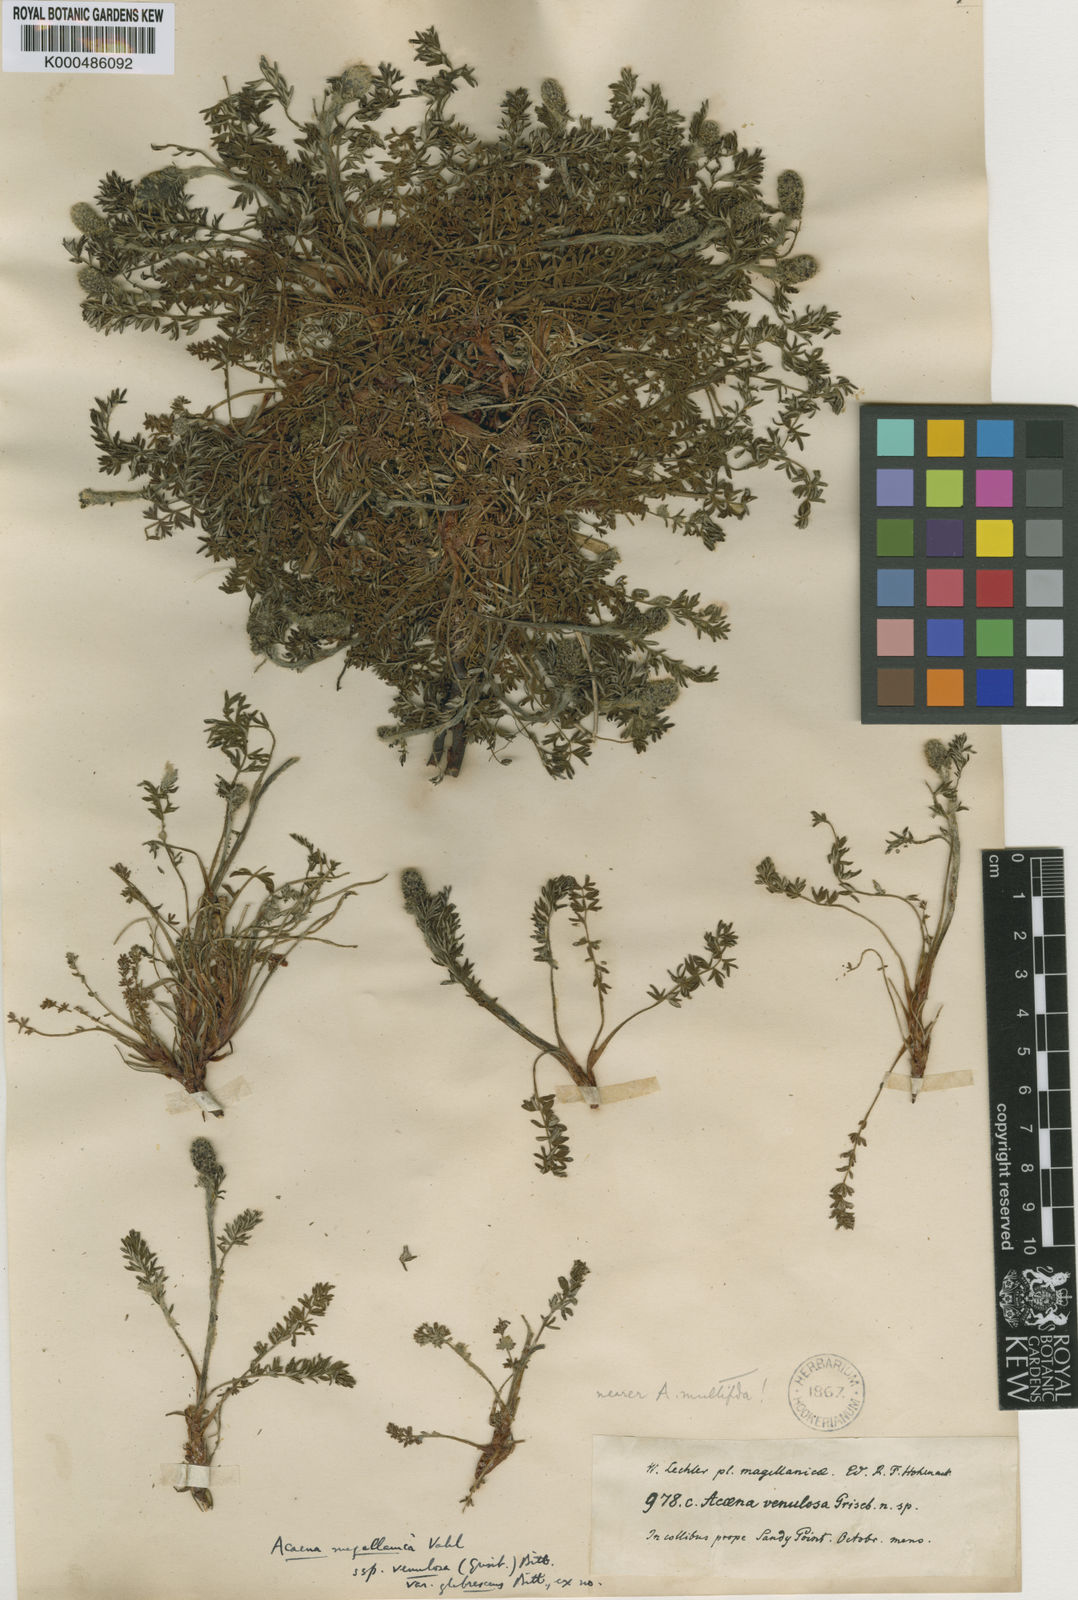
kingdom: Plantae
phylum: Tracheophyta
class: Magnoliopsida
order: Rosales
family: Rosaceae
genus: Acaena
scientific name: Acaena magellanica
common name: New zealand burr
